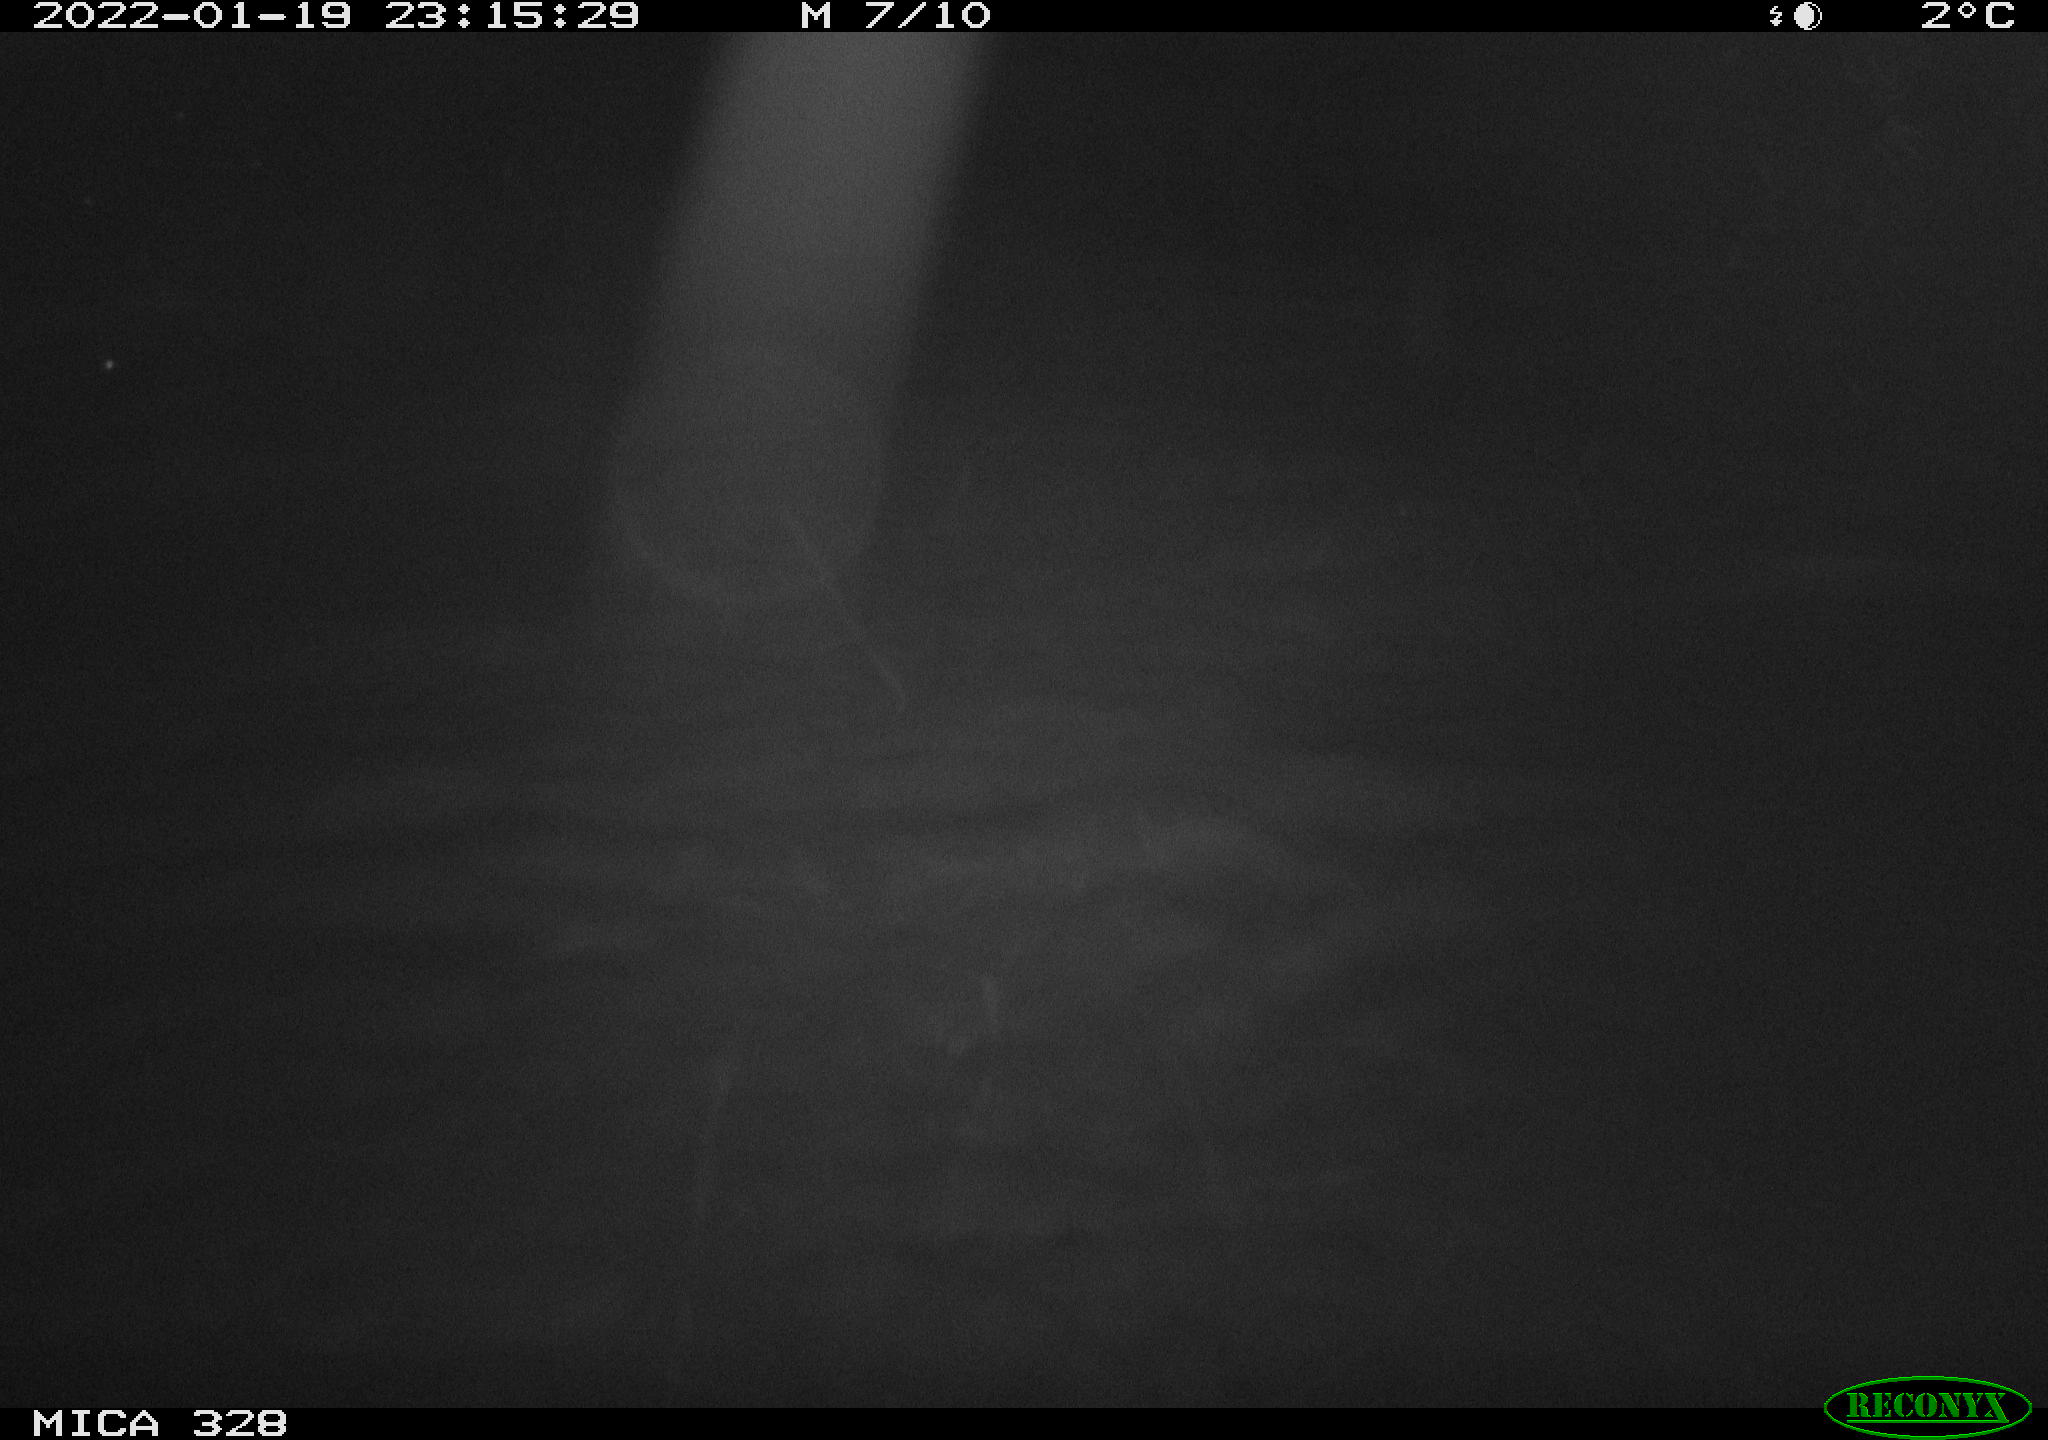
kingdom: Animalia
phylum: Chordata
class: Mammalia
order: Rodentia
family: Cricetidae
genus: Ondatra
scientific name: Ondatra zibethicus
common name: Muskrat
